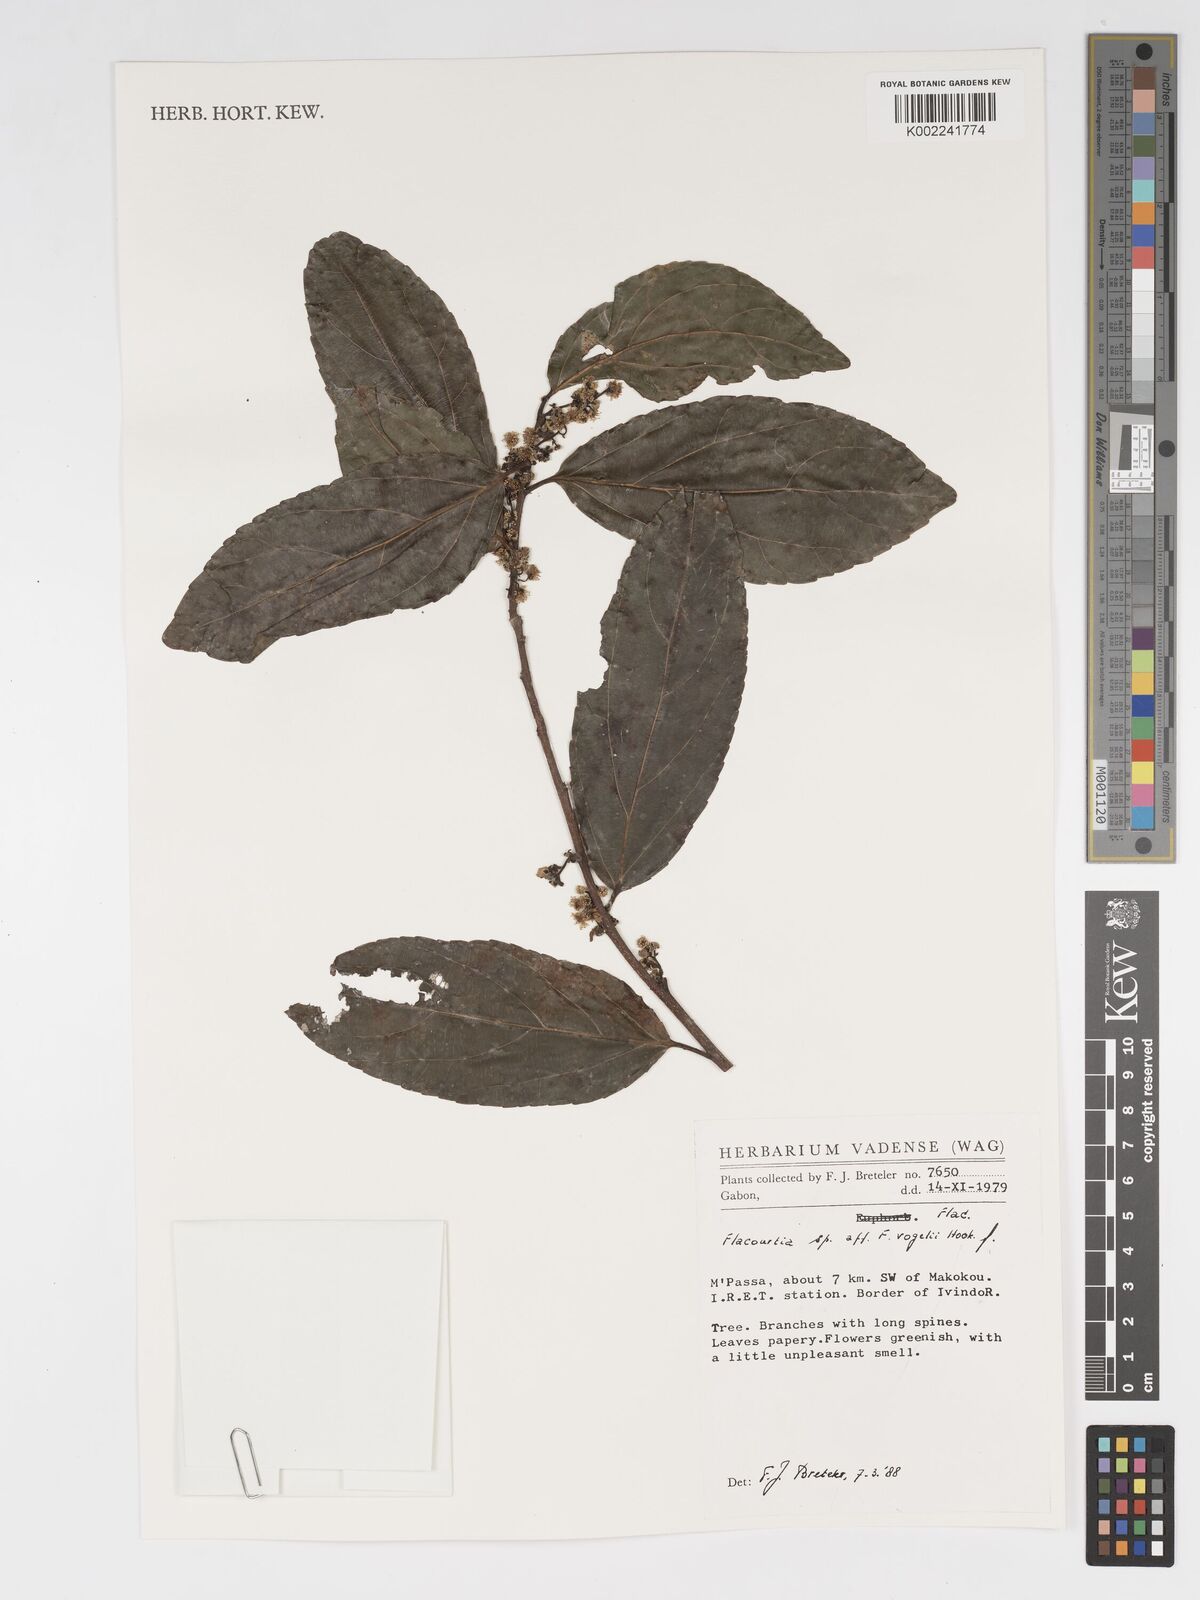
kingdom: Plantae
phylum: Tracheophyta
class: Magnoliopsida
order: Malpighiales
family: Salicaceae
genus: Flacourtia
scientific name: Flacourtia vogelii
